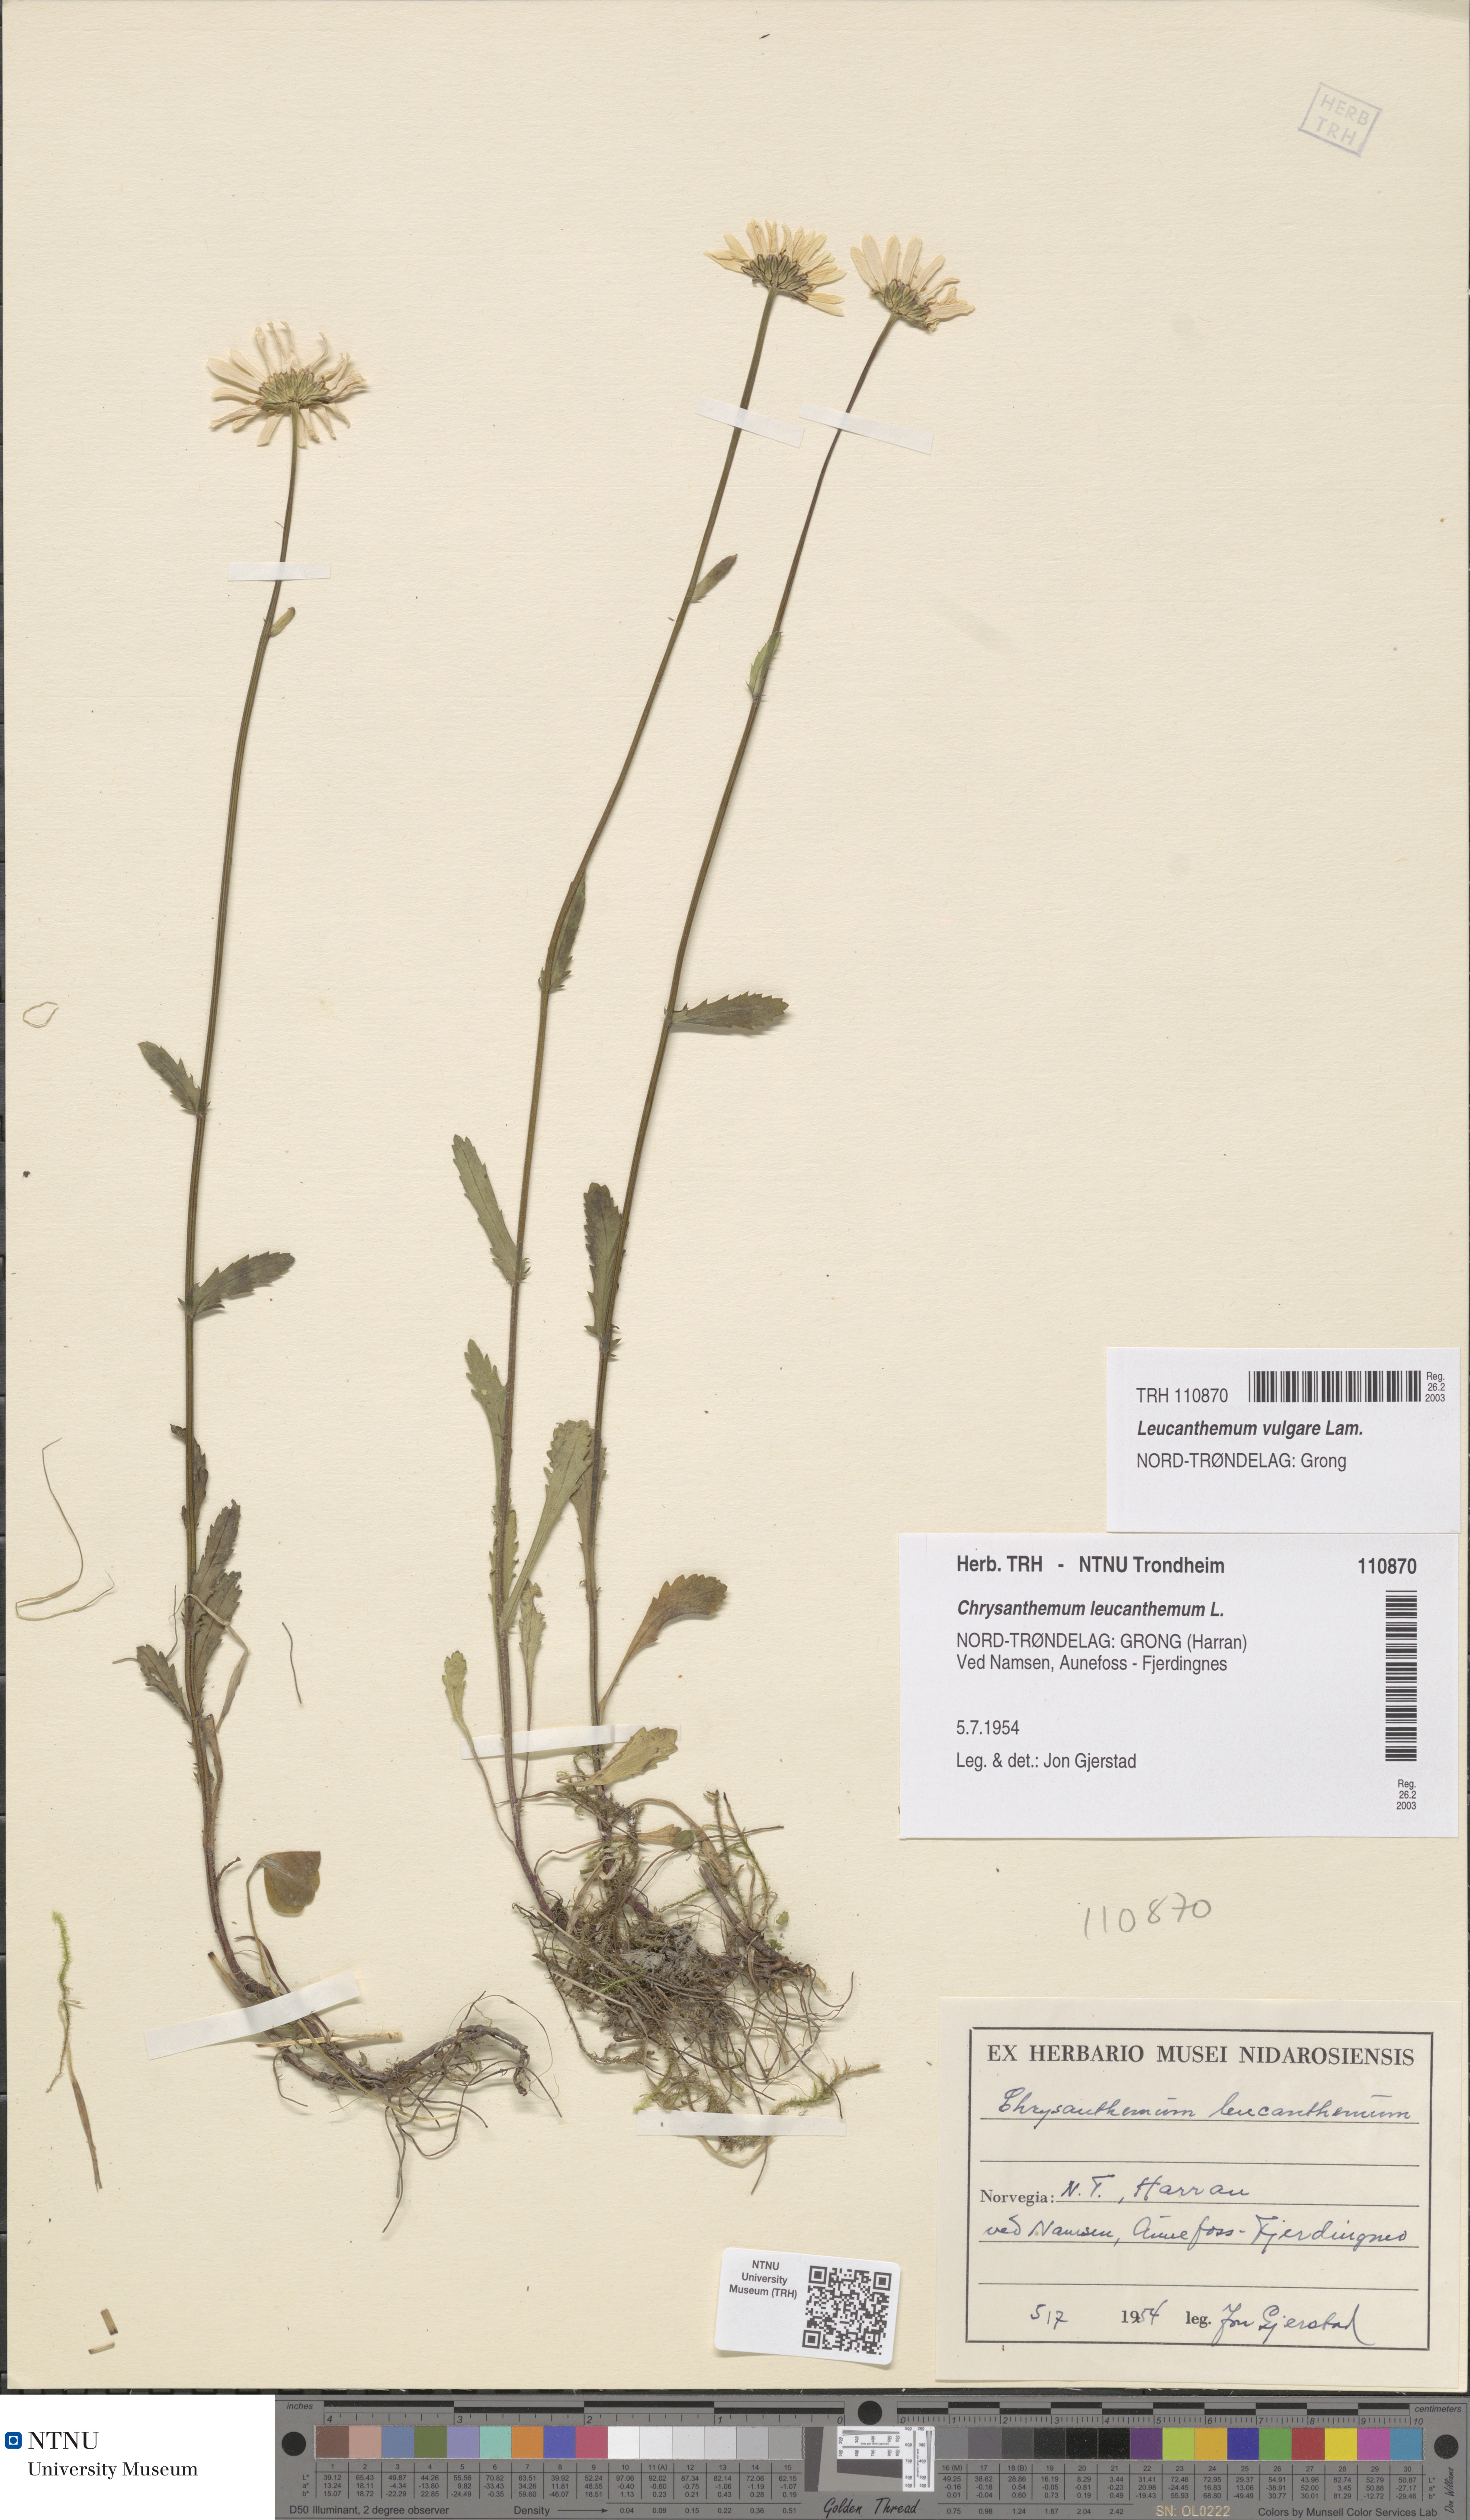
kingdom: Plantae
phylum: Tracheophyta
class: Magnoliopsida
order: Asterales
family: Asteraceae
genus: Leucanthemum
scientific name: Leucanthemum vulgare
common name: Oxeye daisy
